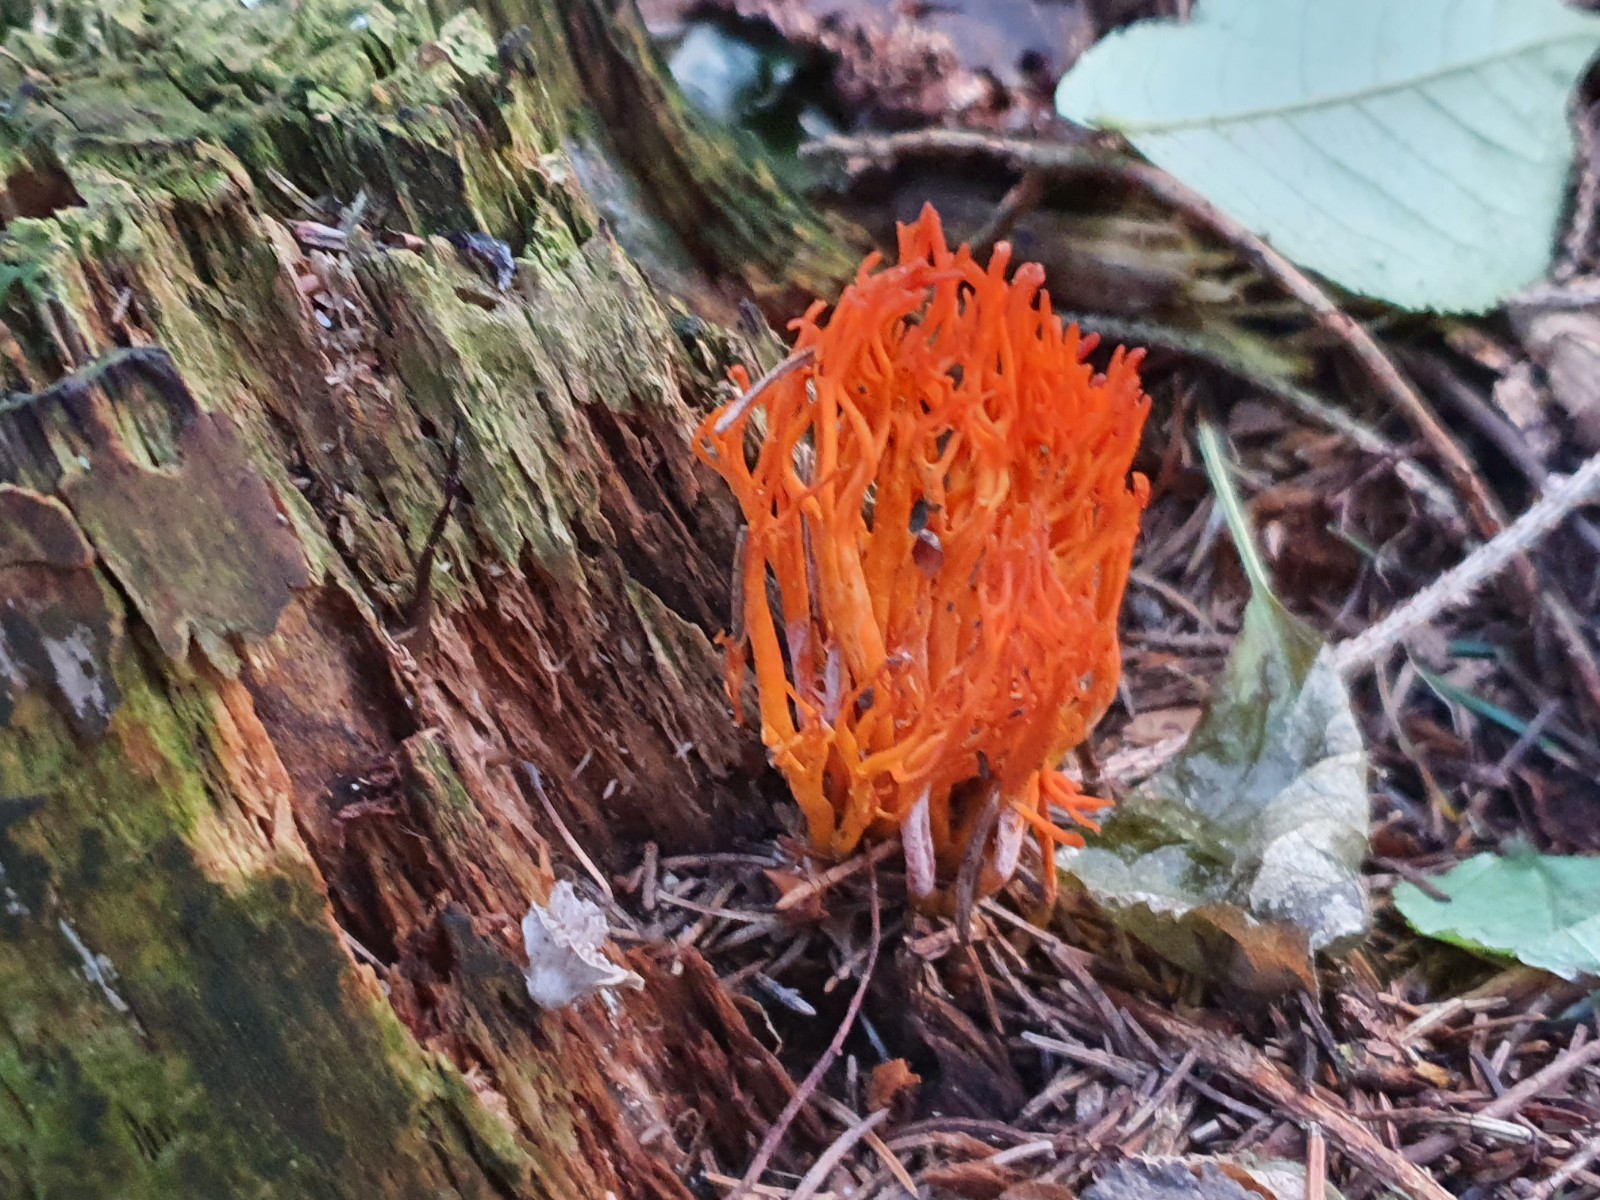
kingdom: Fungi
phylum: Basidiomycota
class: Dacrymycetes
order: Dacrymycetales
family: Dacrymycetaceae
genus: Calocera
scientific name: Calocera viscosa
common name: almindelig guldgaffel
